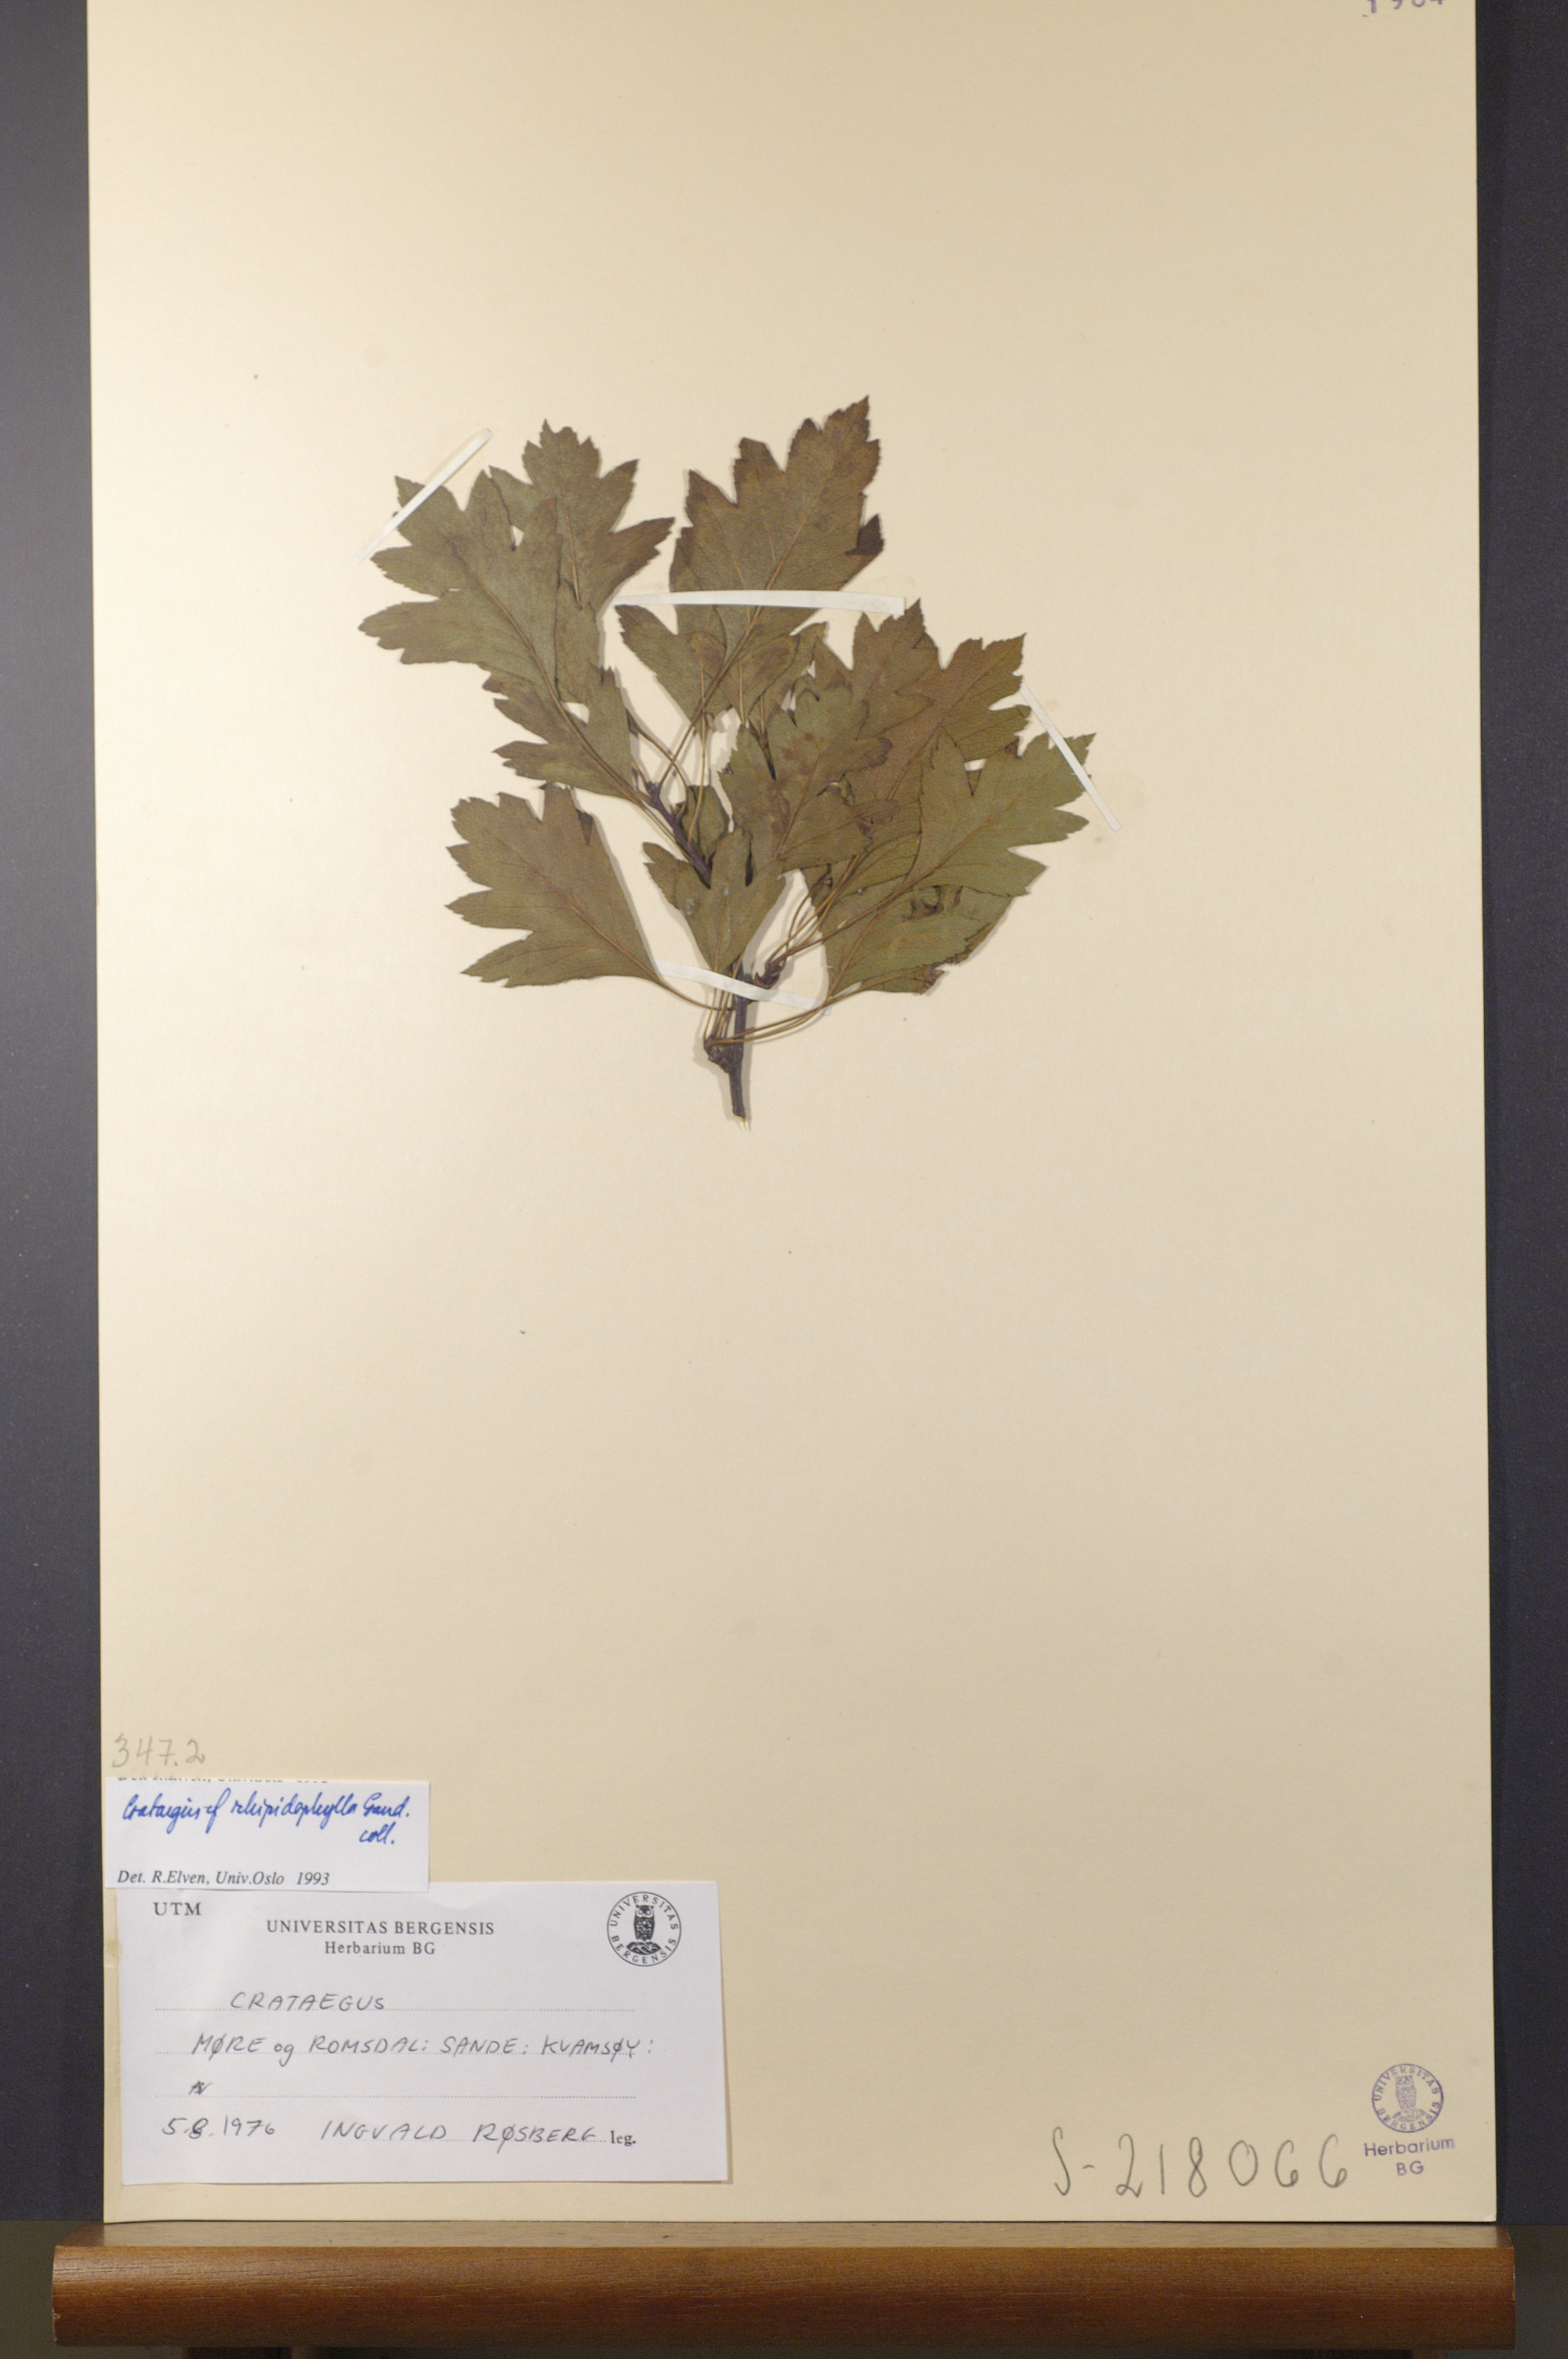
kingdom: Plantae
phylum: Tracheophyta
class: Magnoliopsida
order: Rosales
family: Rosaceae
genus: Crataegus
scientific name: Crataegus rhipidophylla
